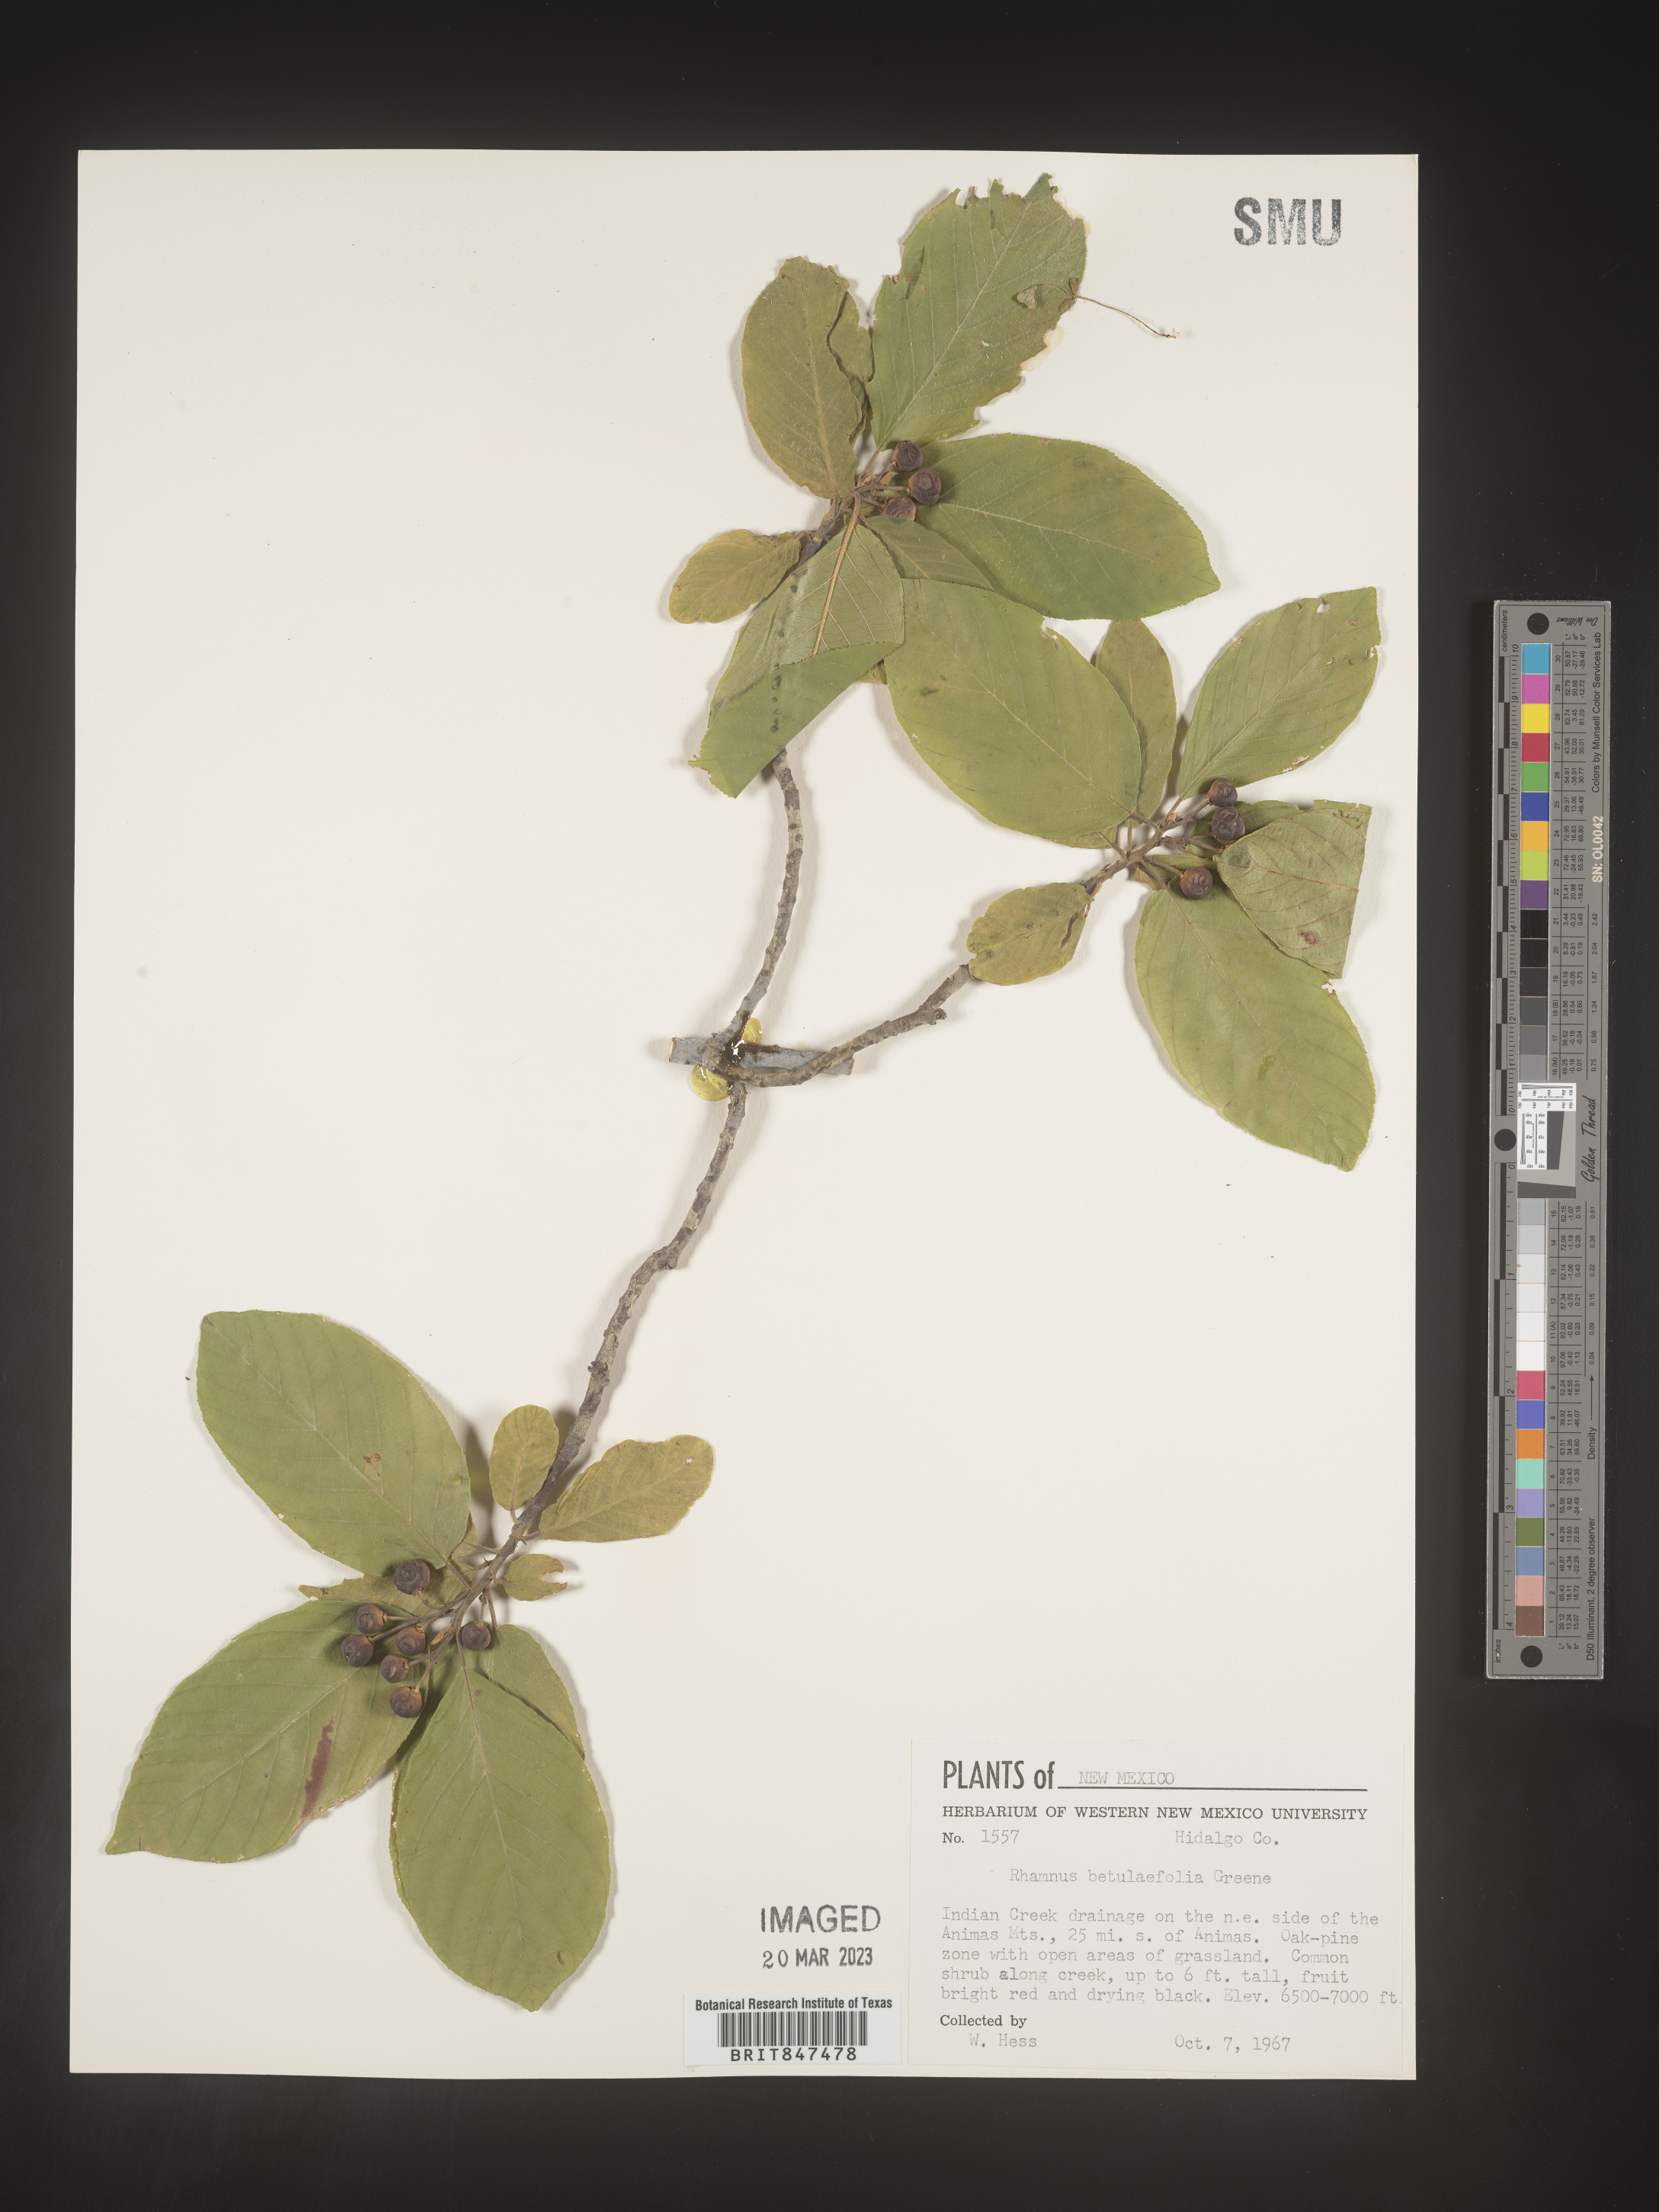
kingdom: Plantae
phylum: Tracheophyta
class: Magnoliopsida
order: Rosales
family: Rhamnaceae
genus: Frangula
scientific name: Frangula betulifolia
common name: Birch-leaf buckthorn
